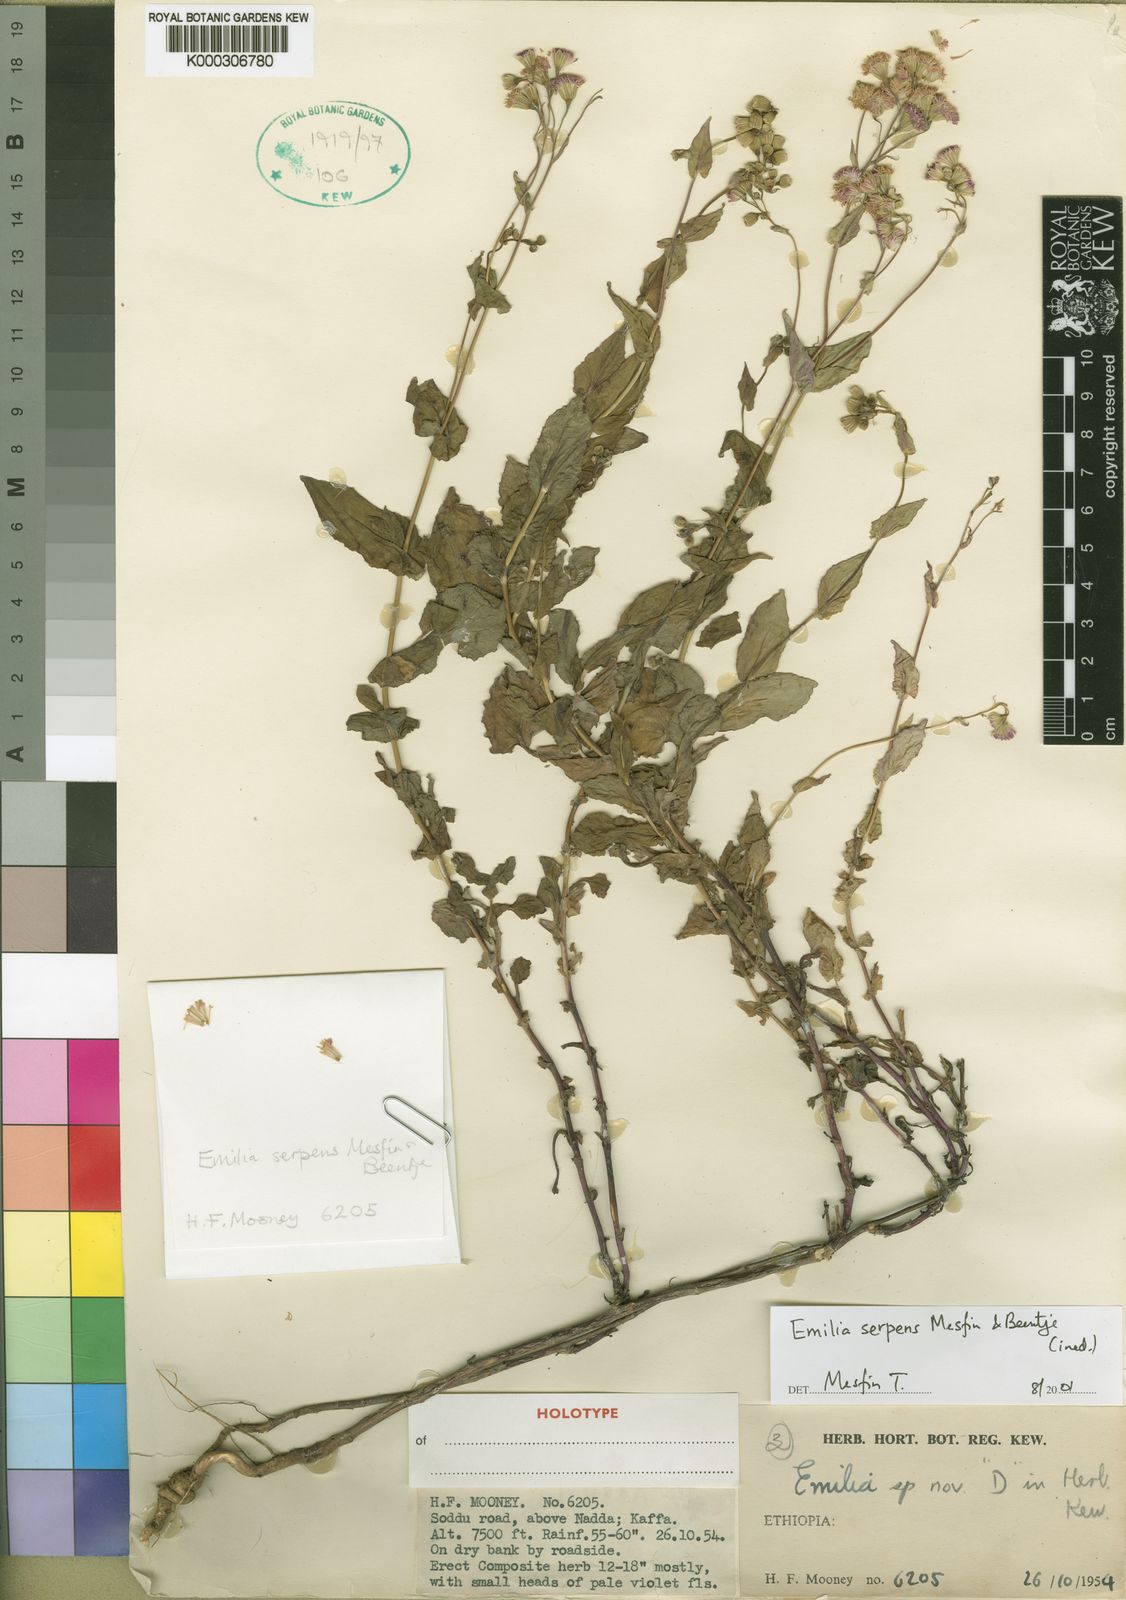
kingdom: Plantae
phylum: Tracheophyta
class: Magnoliopsida
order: Asterales
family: Asteraceae
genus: Emilia
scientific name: Emilia serpentina
